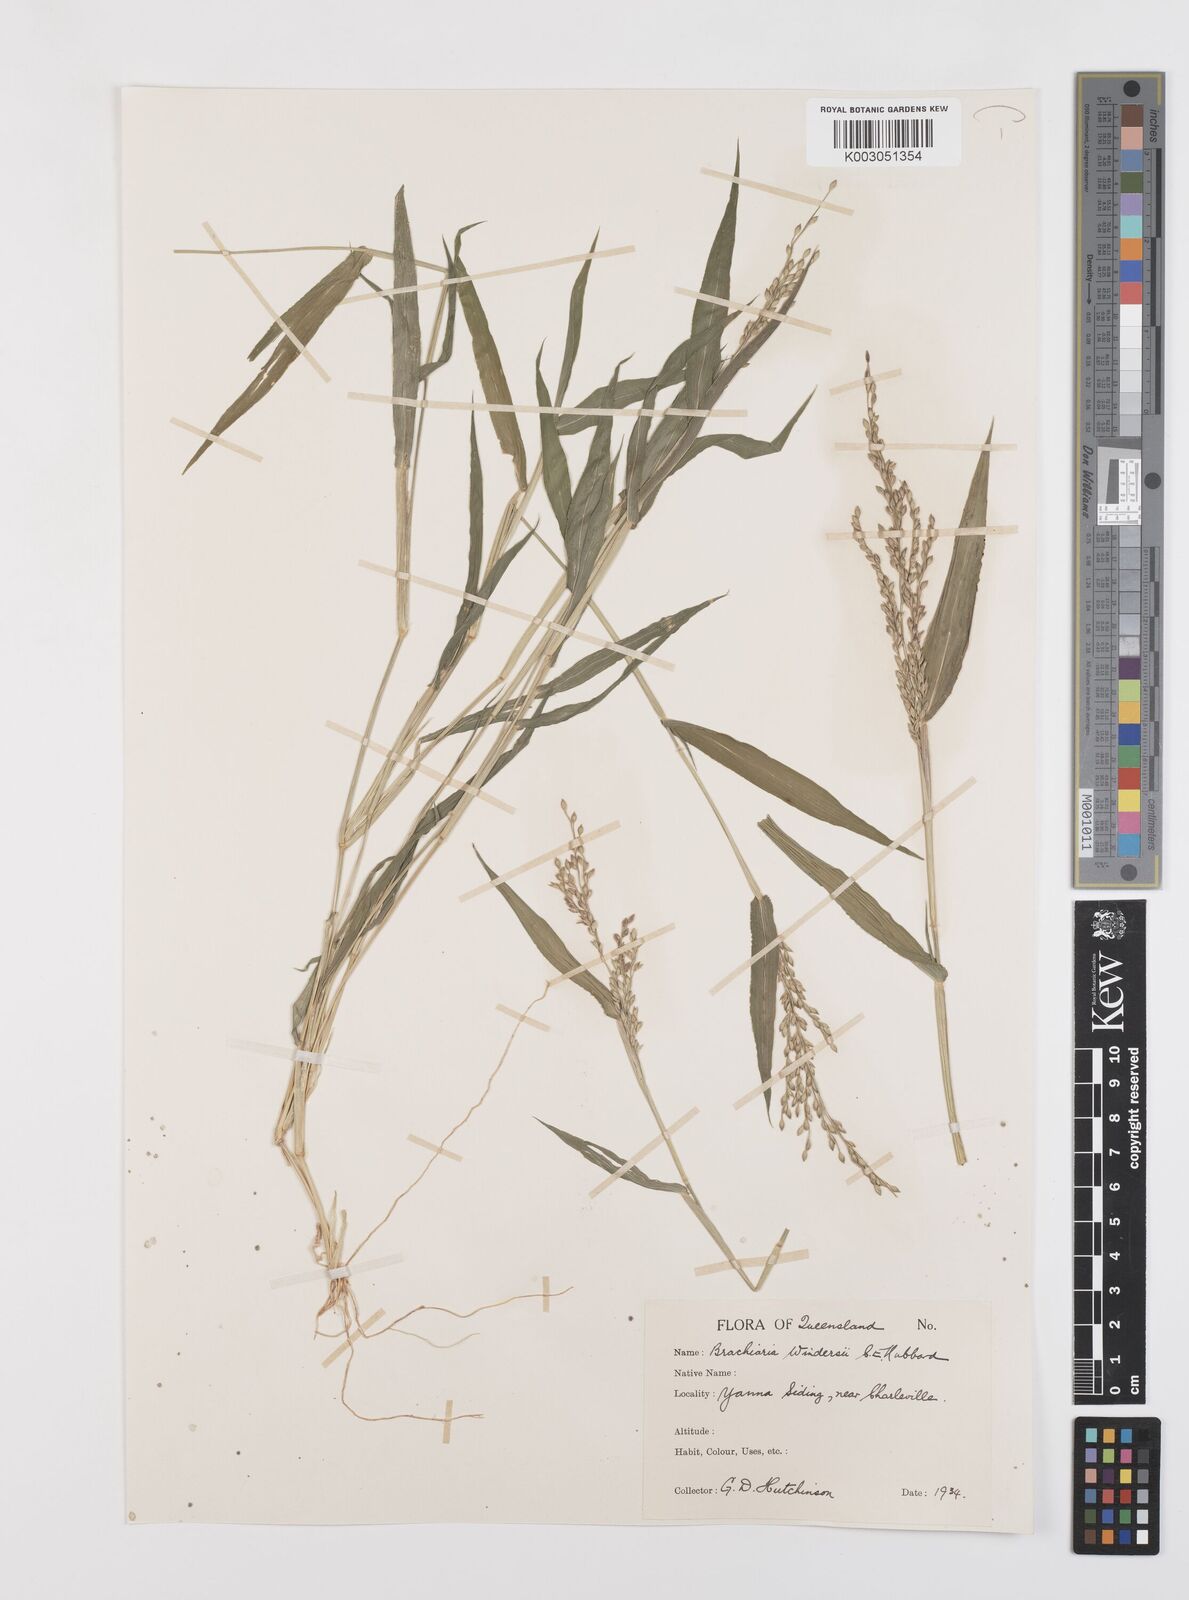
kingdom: Plantae
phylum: Tracheophyta
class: Liliopsida
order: Poales
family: Poaceae
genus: Urochloa
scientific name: Urochloa whiteana
